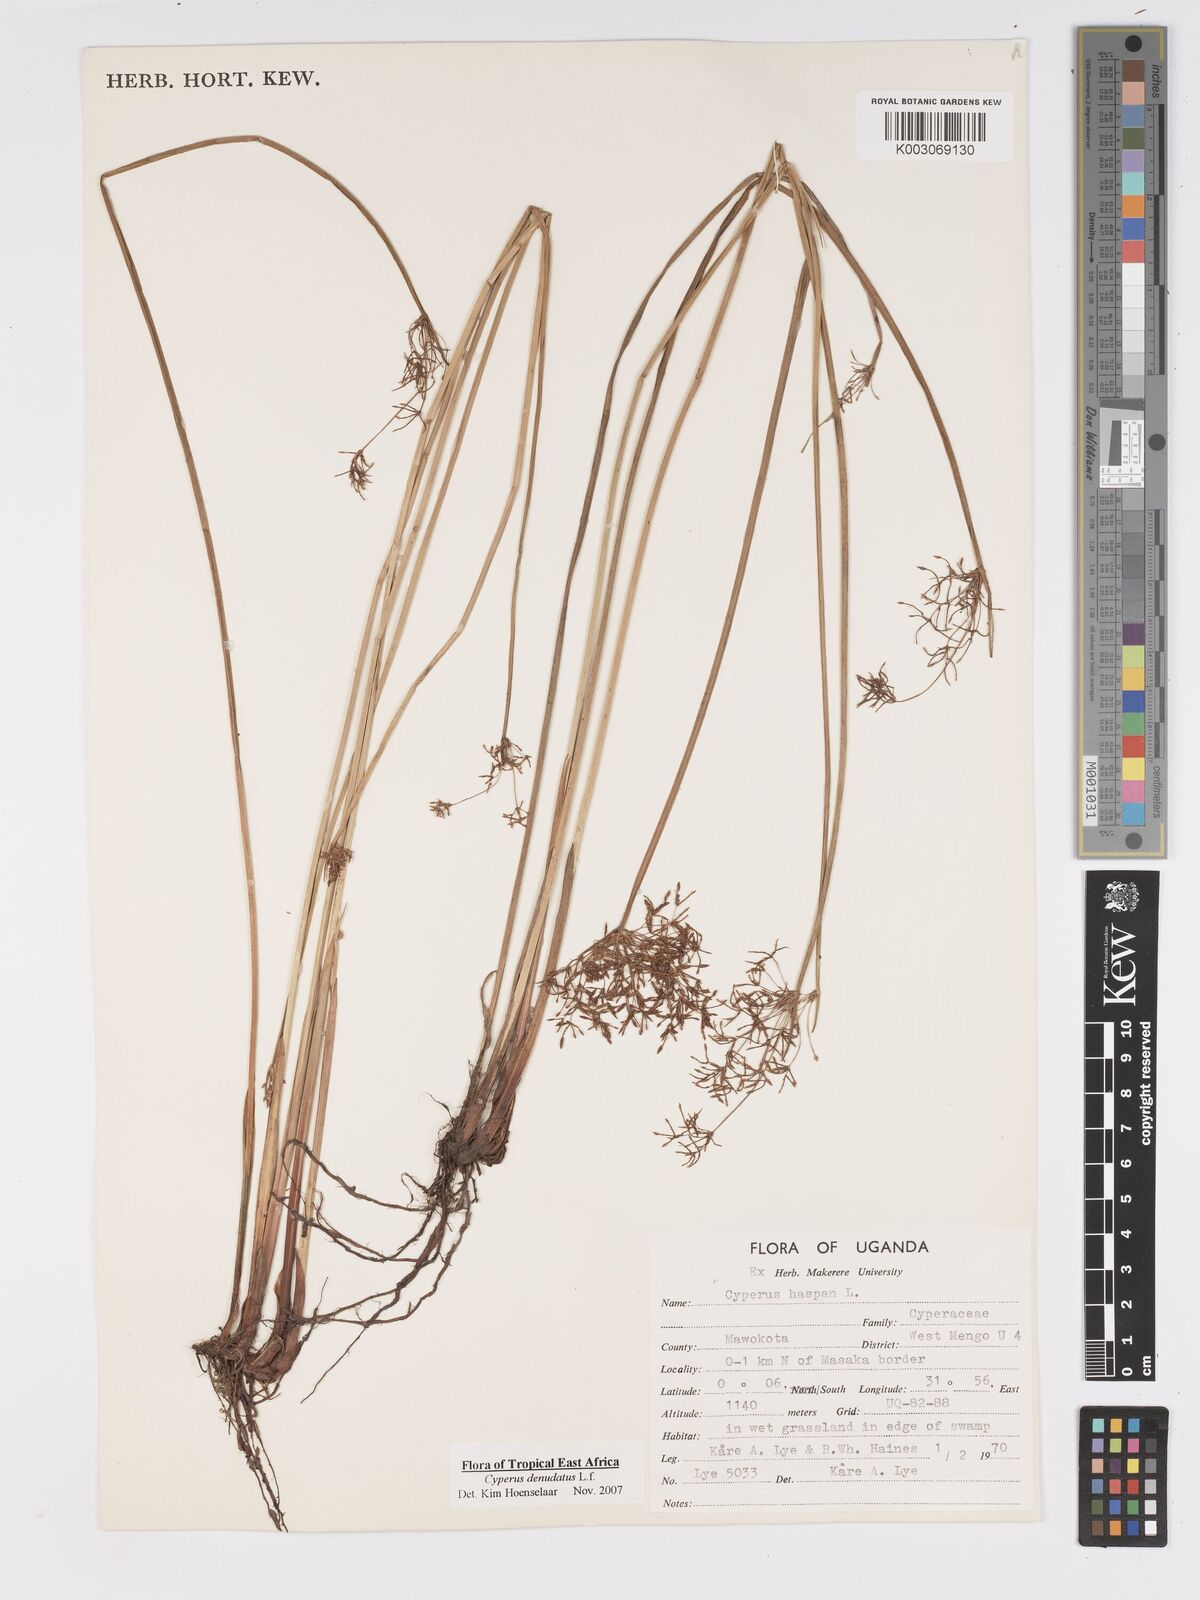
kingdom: Plantae
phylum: Tracheophyta
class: Liliopsida
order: Poales
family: Cyperaceae
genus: Cyperus
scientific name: Cyperus platycaulis
